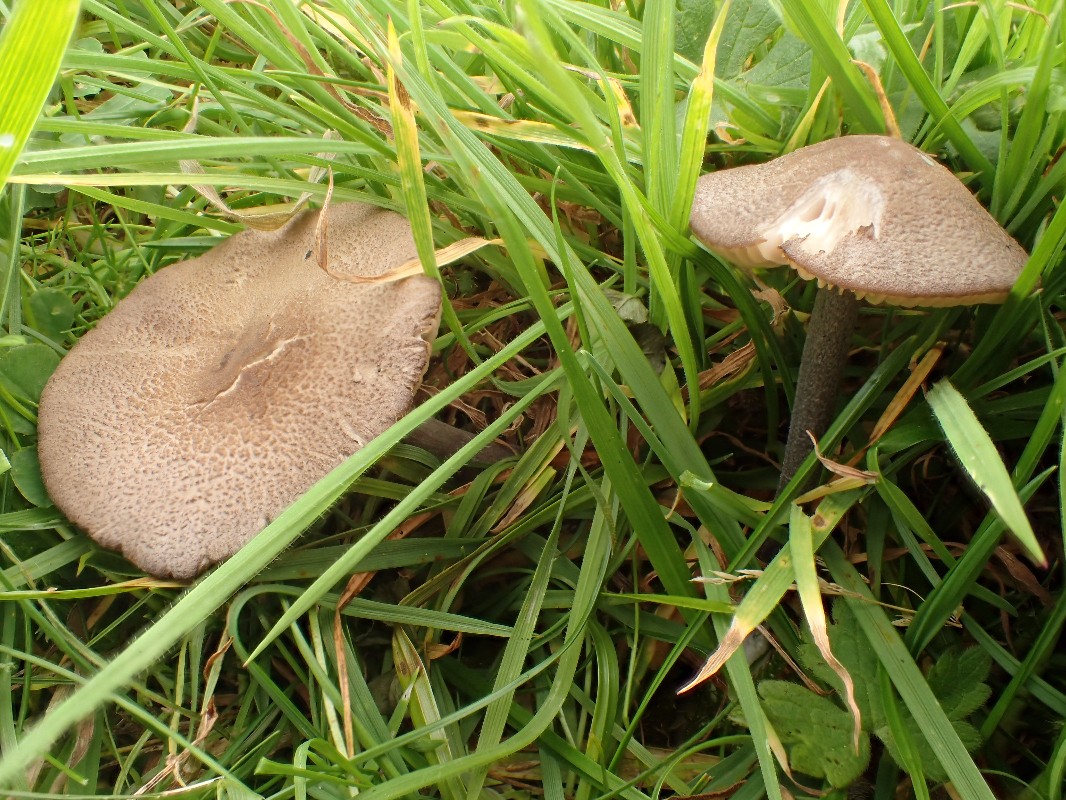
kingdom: Fungi
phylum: Basidiomycota
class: Agaricomycetes
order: Agaricales
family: Entolomataceae
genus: Entoloma
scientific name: Entoloma griseocyaneum
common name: gråblå rødblad
